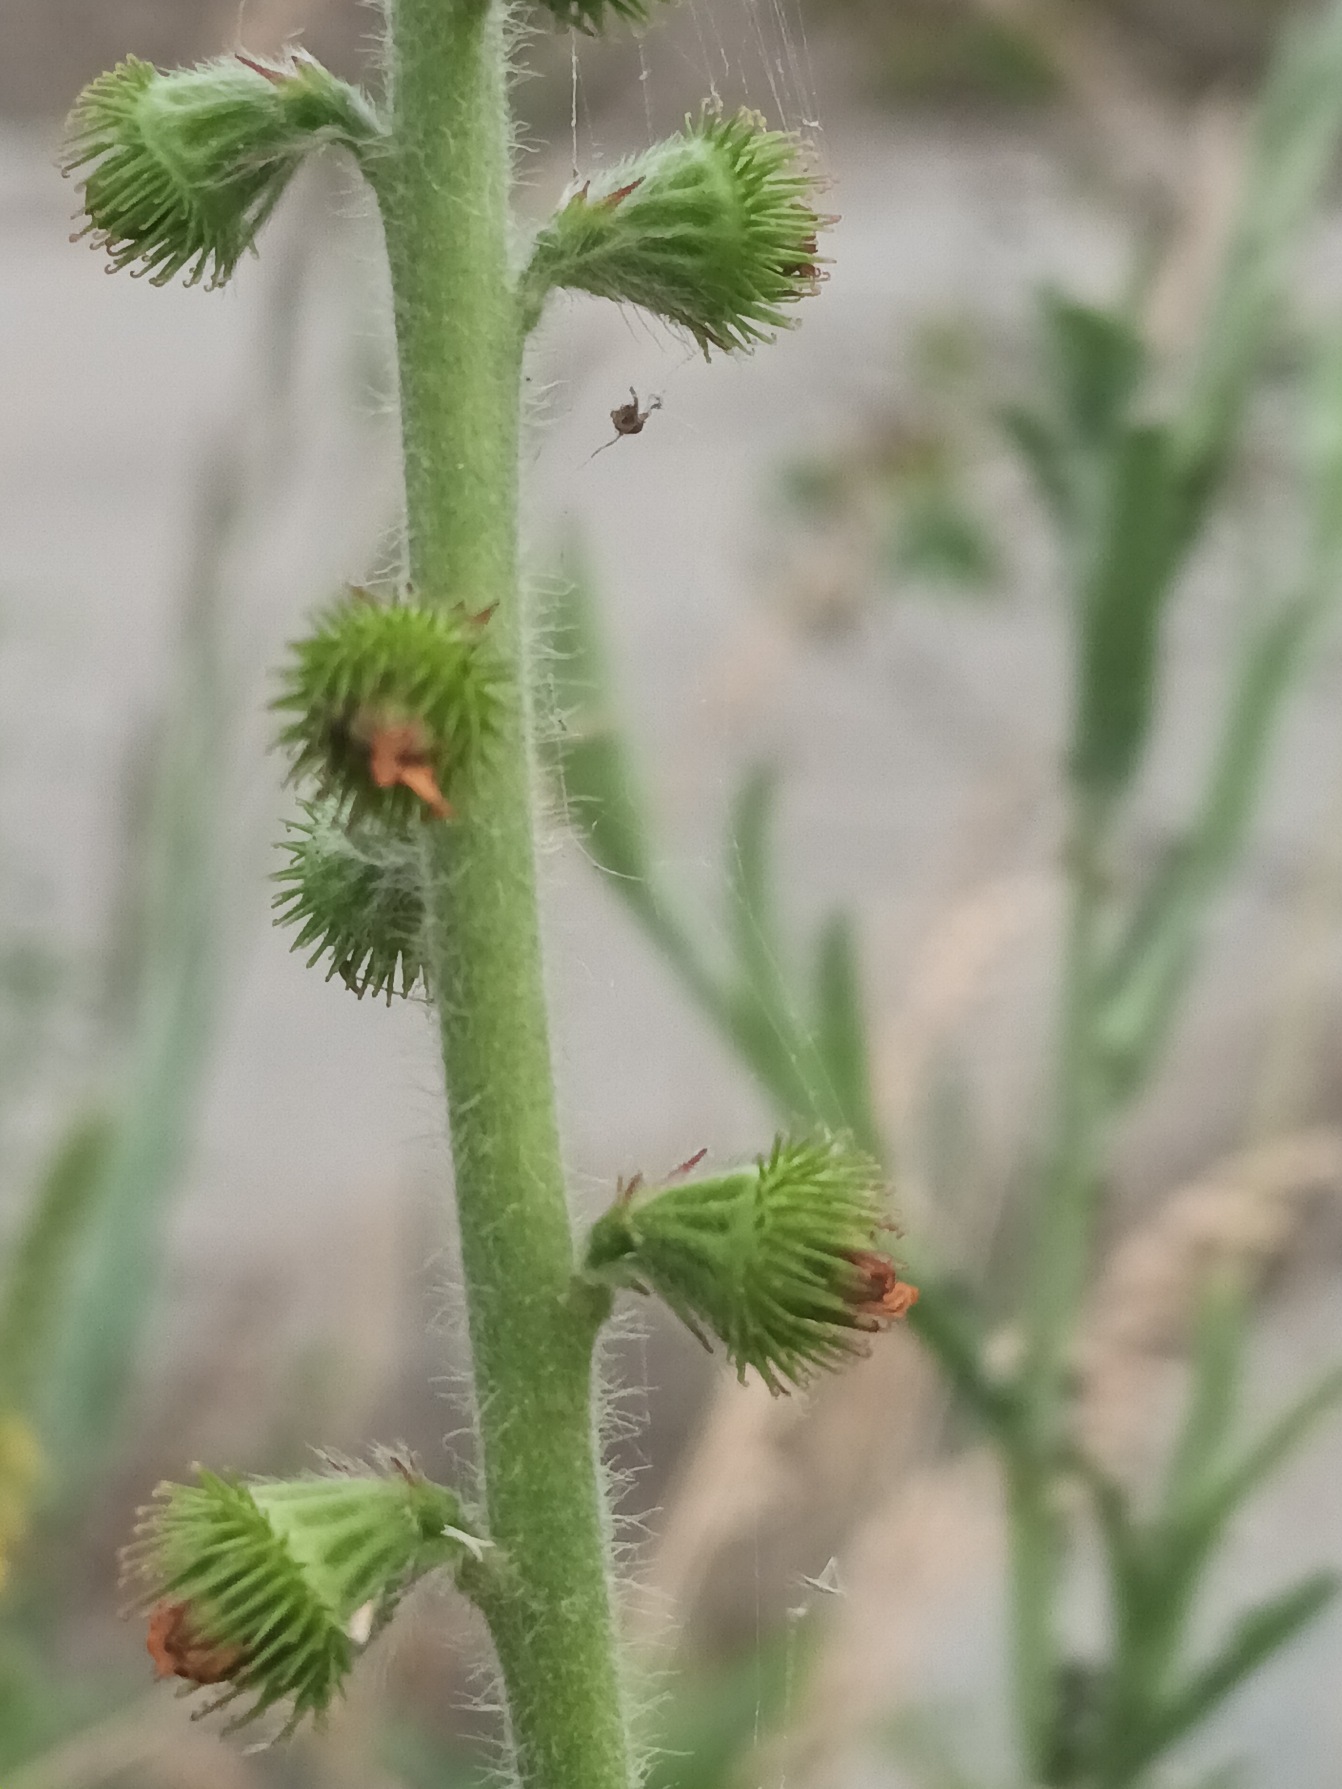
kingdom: Plantae
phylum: Tracheophyta
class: Magnoliopsida
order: Rosales
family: Rosaceae
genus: Agrimonia
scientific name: Agrimonia eupatoria
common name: Almindelig agermåne
